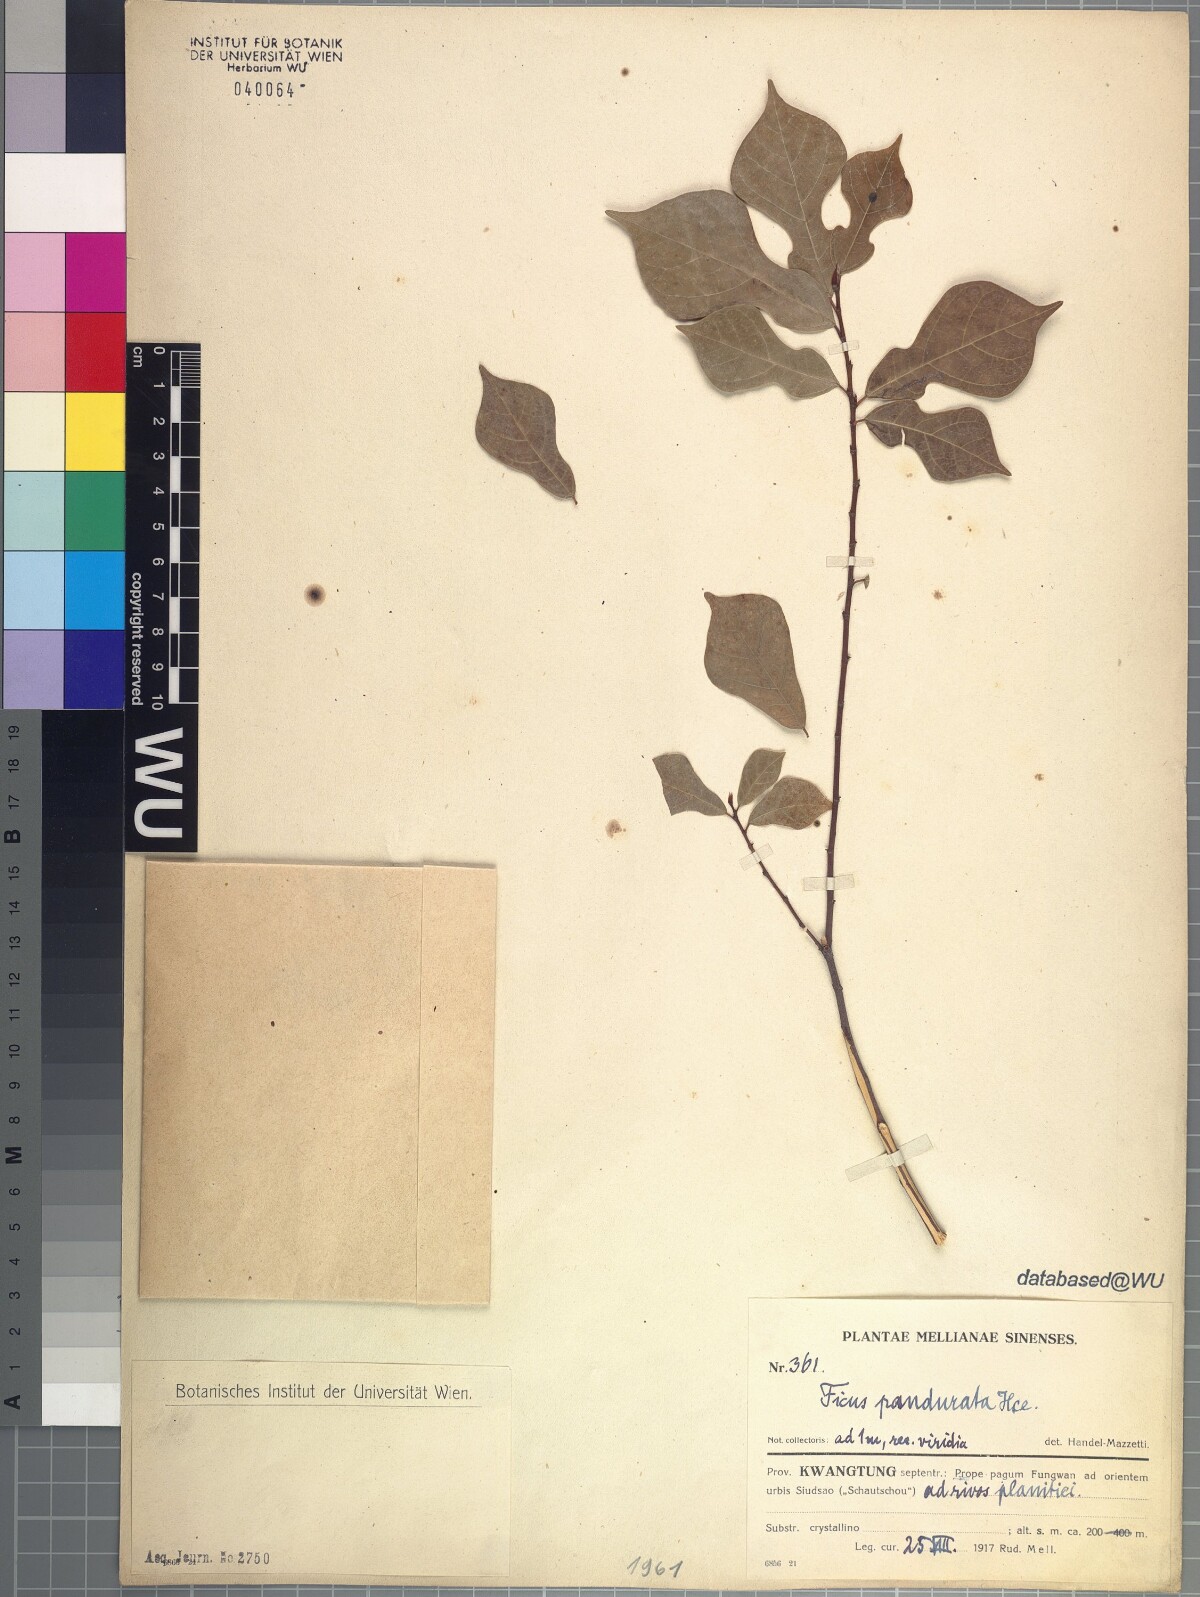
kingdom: Plantae
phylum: Tracheophyta
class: Magnoliopsida
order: Rosales
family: Moraceae
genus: Ficus
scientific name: Ficus pandurata
